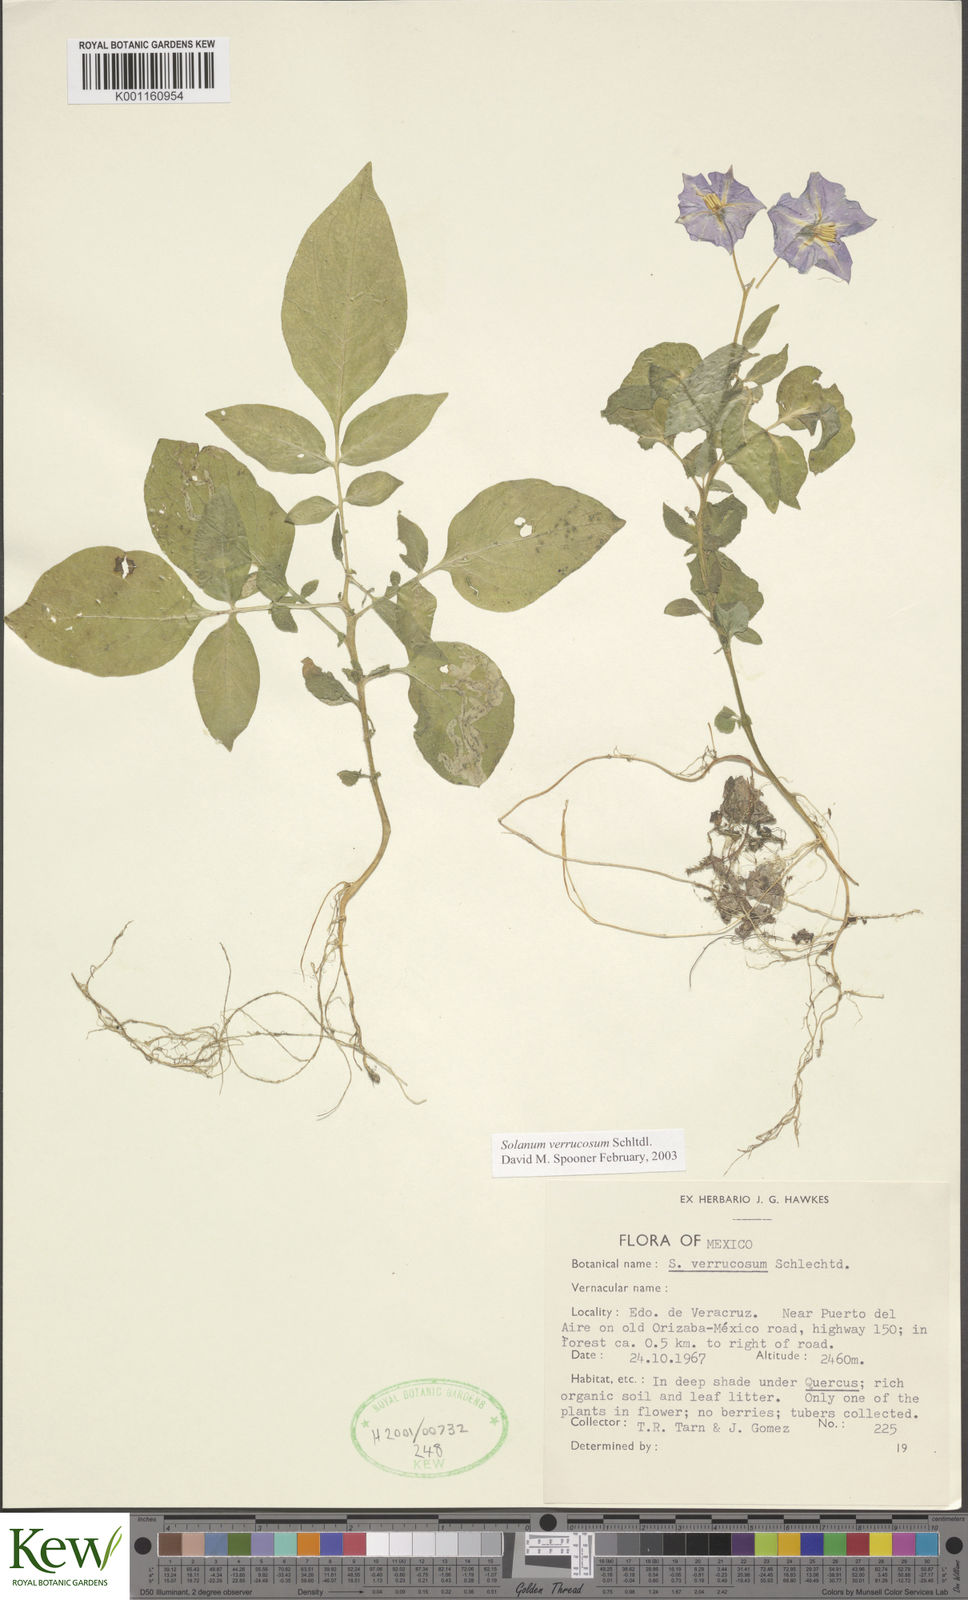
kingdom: Plantae
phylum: Tracheophyta
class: Magnoliopsida
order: Solanales
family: Solanaceae
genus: Solanum
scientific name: Solanum verrucosum
